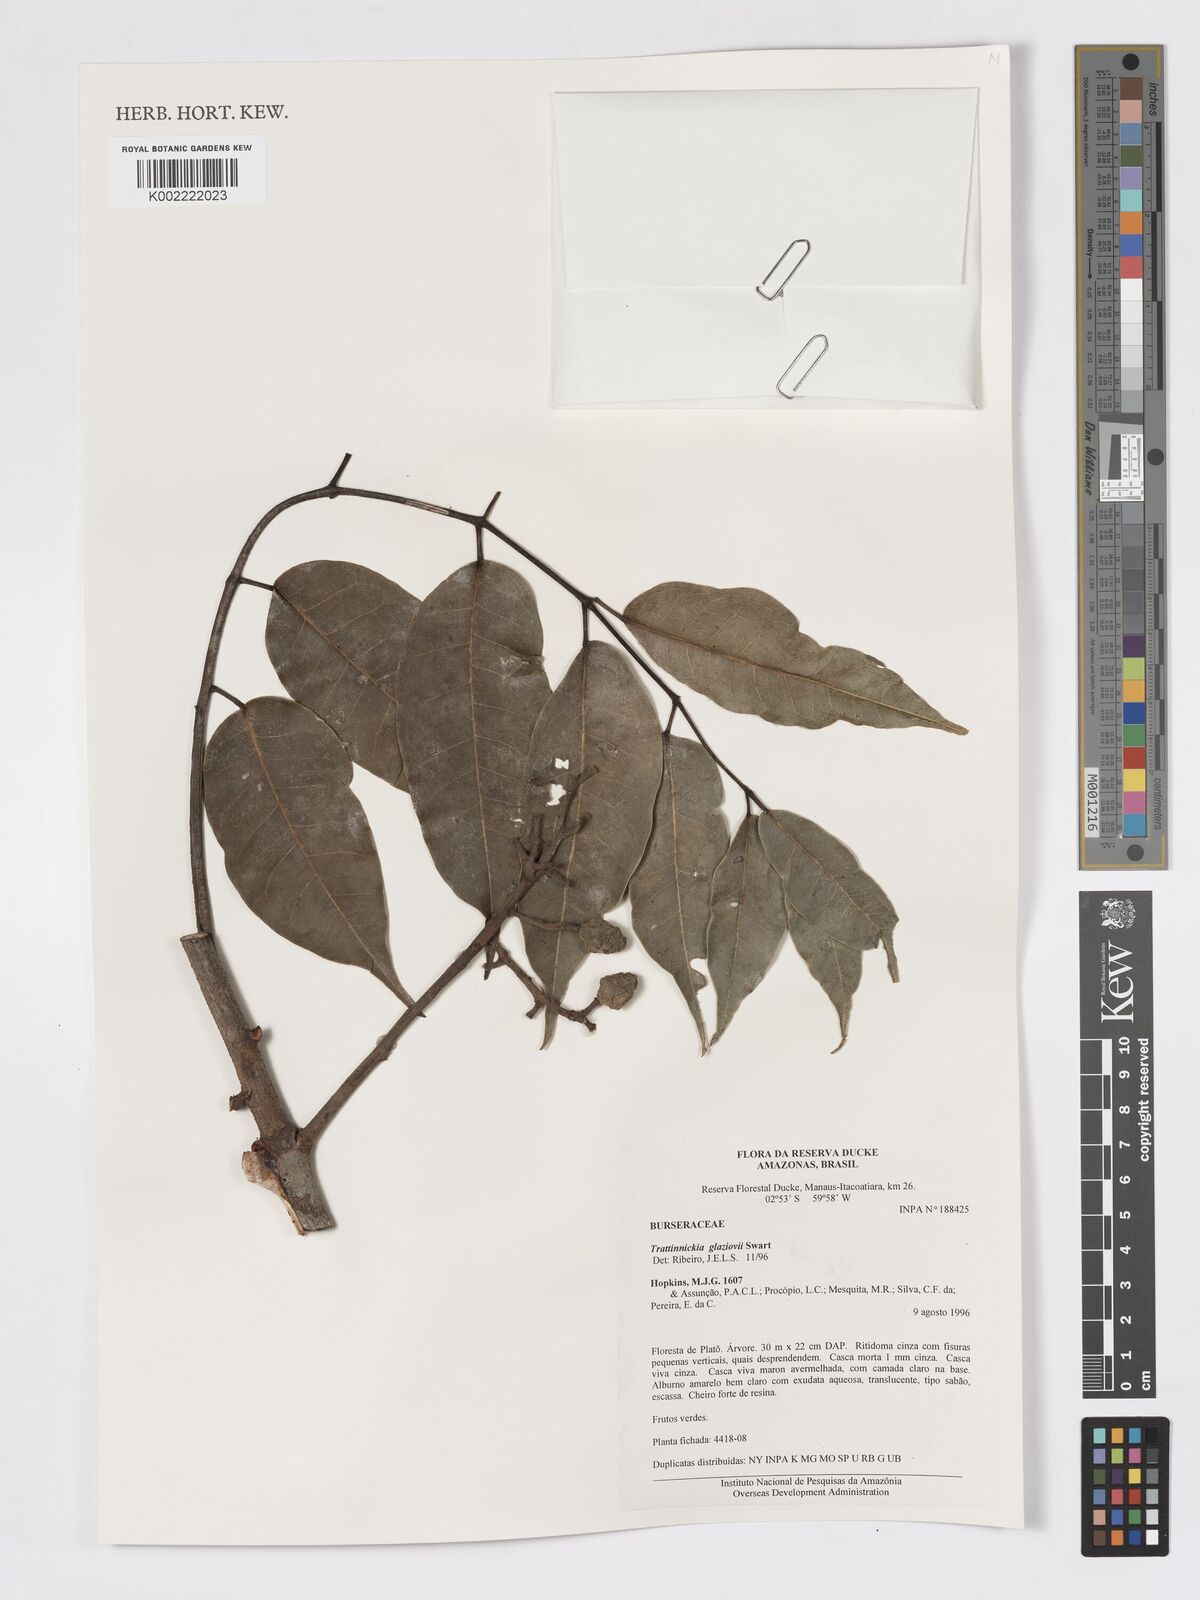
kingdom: Plantae
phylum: Tracheophyta
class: Magnoliopsida
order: Sapindales
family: Burseraceae
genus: Trattinnickia
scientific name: Trattinnickia glaziovii
